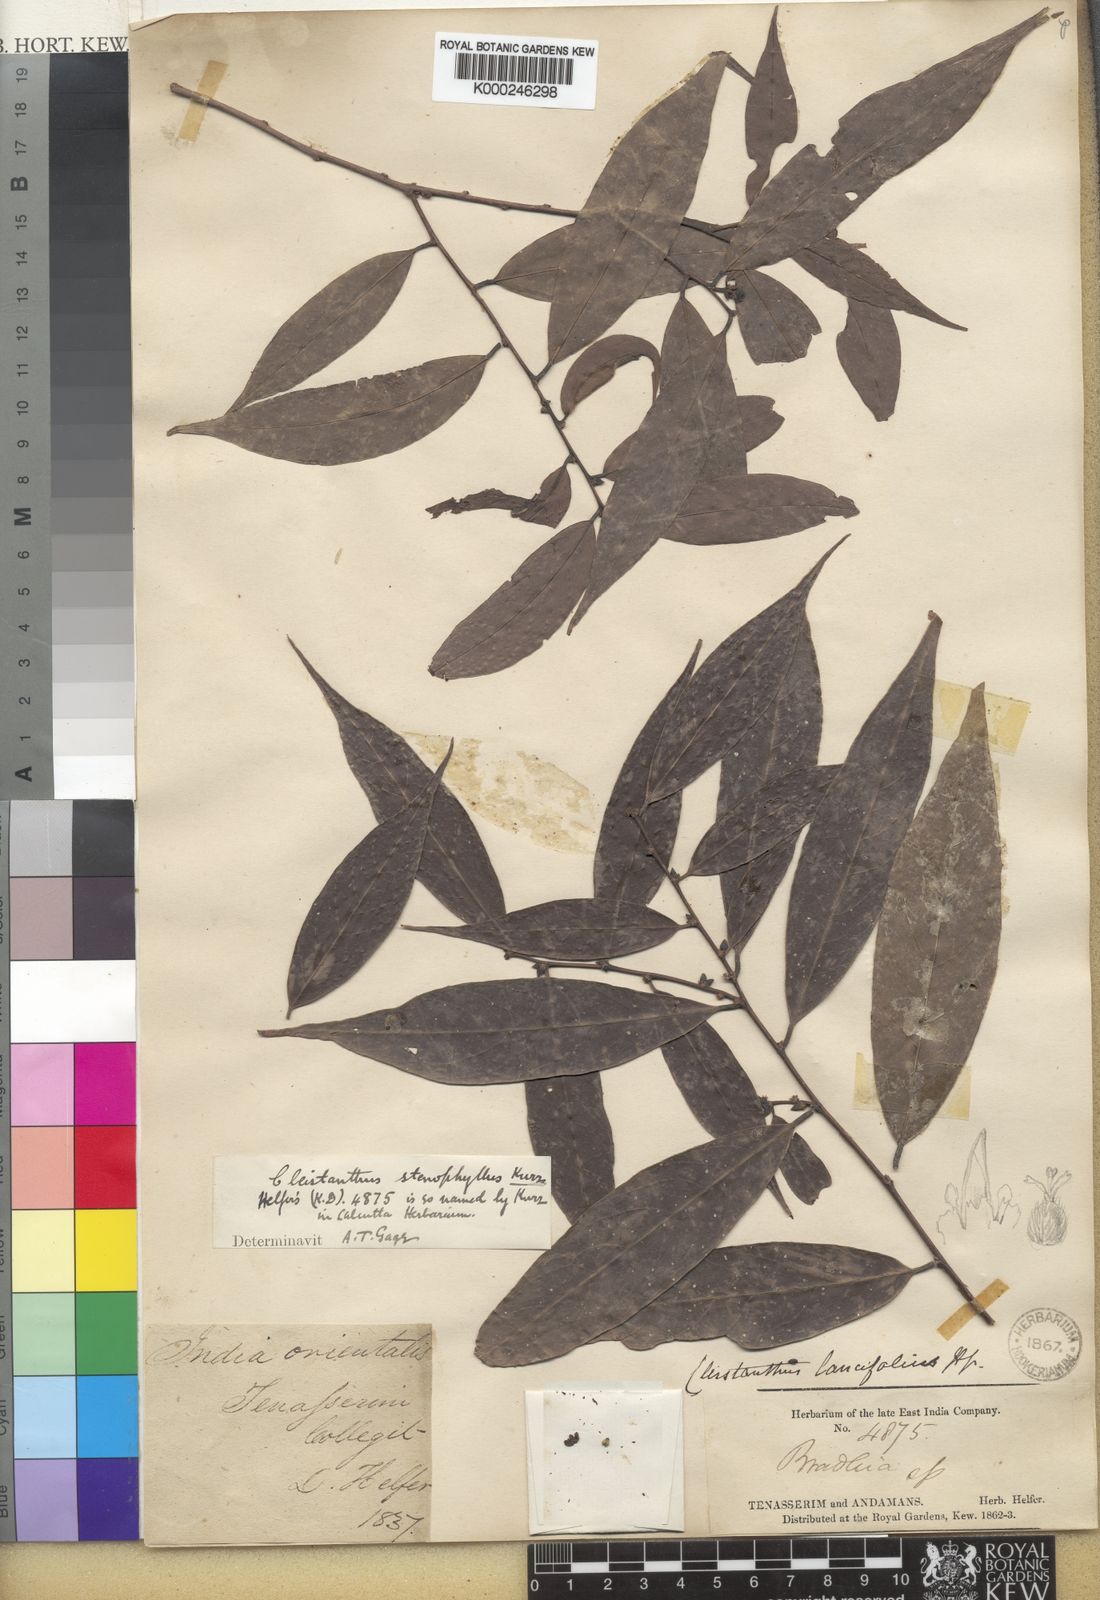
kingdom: Plantae
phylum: Tracheophyta
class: Magnoliopsida
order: Malpighiales
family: Phyllanthaceae
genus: Cleistanthus
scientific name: Cleistanthus stenophyllus
